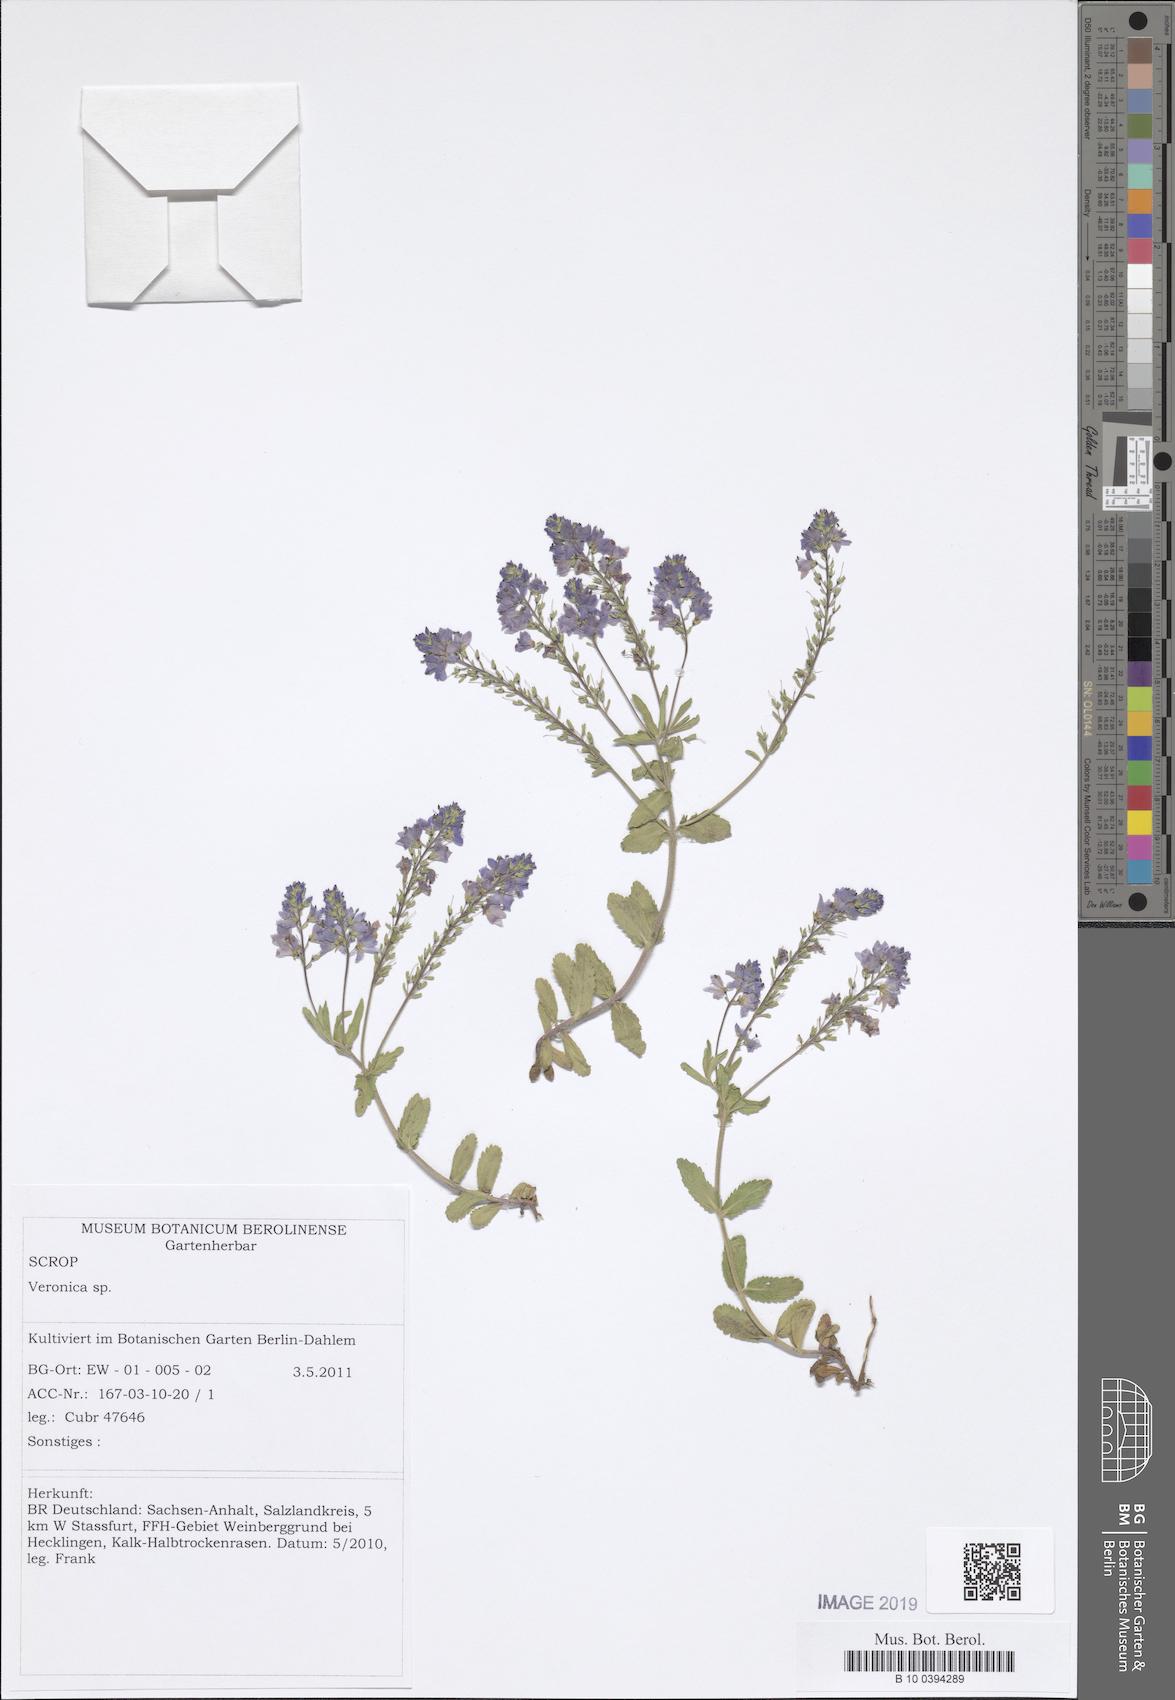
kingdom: Plantae
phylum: Tracheophyta
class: Magnoliopsida
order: Lamiales
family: Plantaginaceae
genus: Veronica
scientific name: Veronica prostrata
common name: Prostrate speedwell
